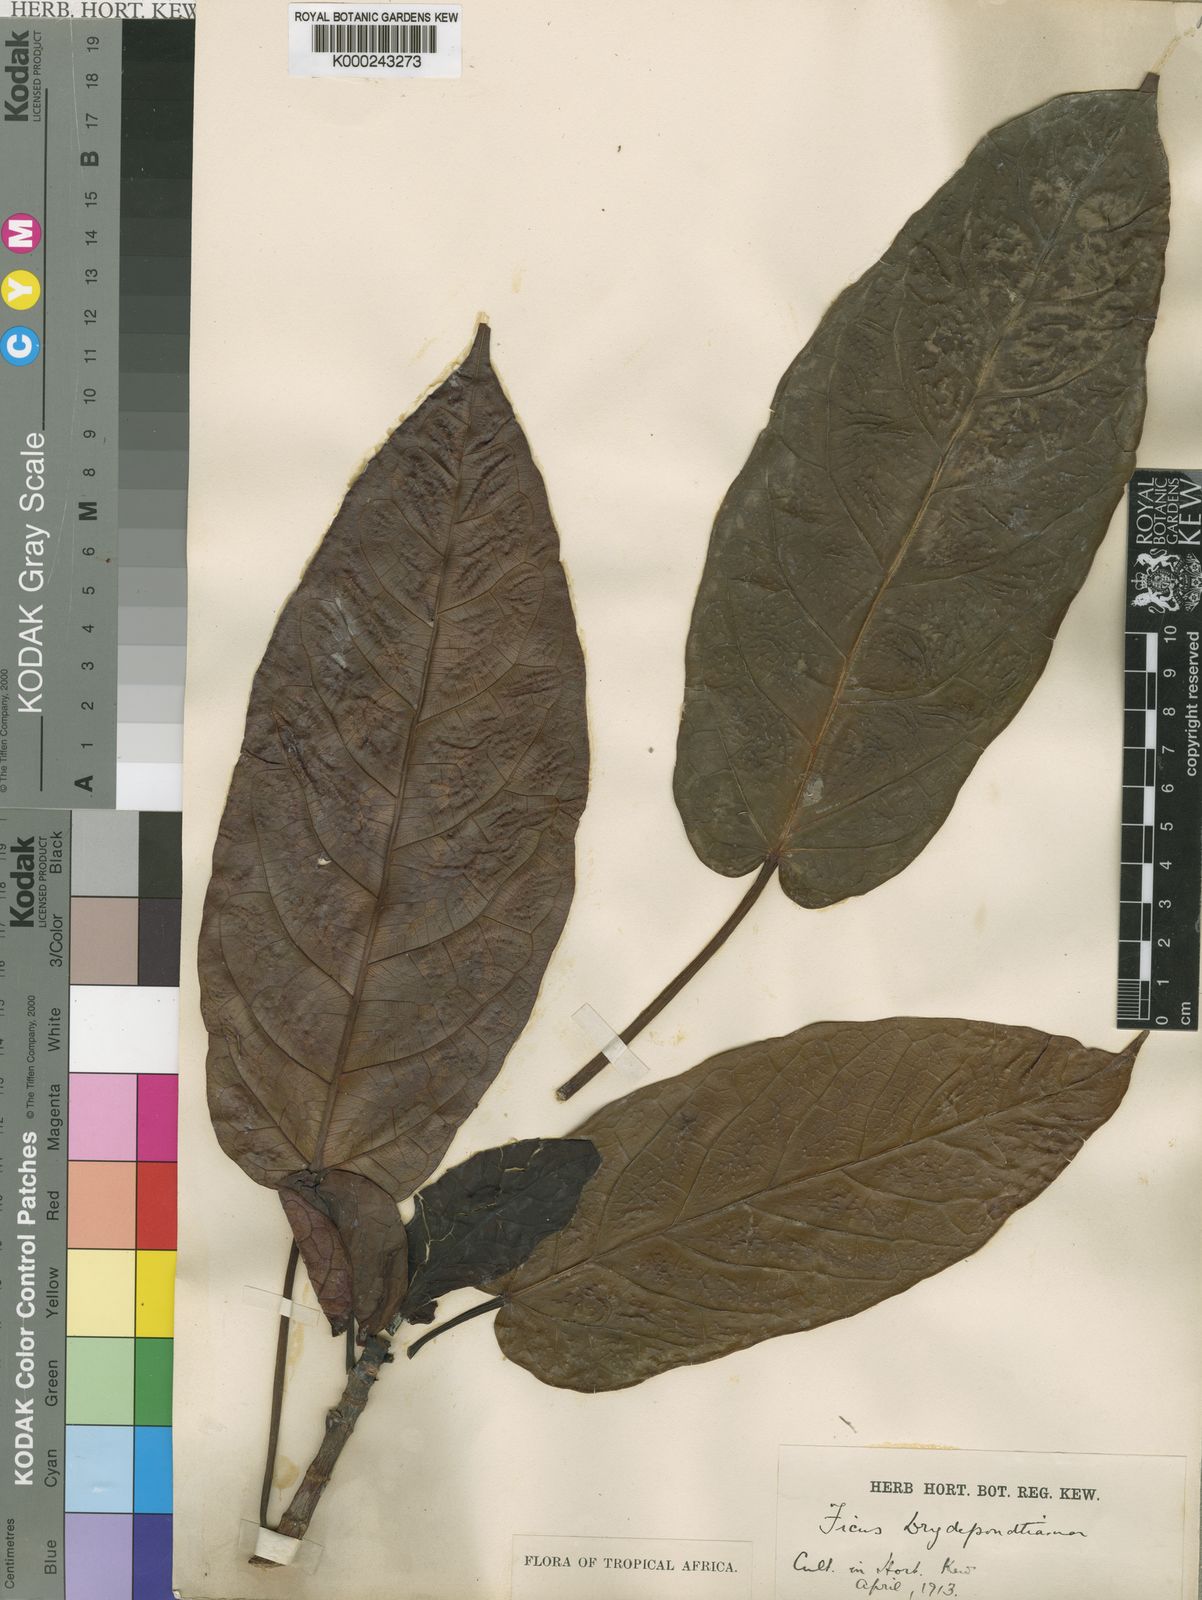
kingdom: Plantae
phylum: Tracheophyta
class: Magnoliopsida
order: Rosales
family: Moraceae
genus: Ficus
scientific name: Ficus
